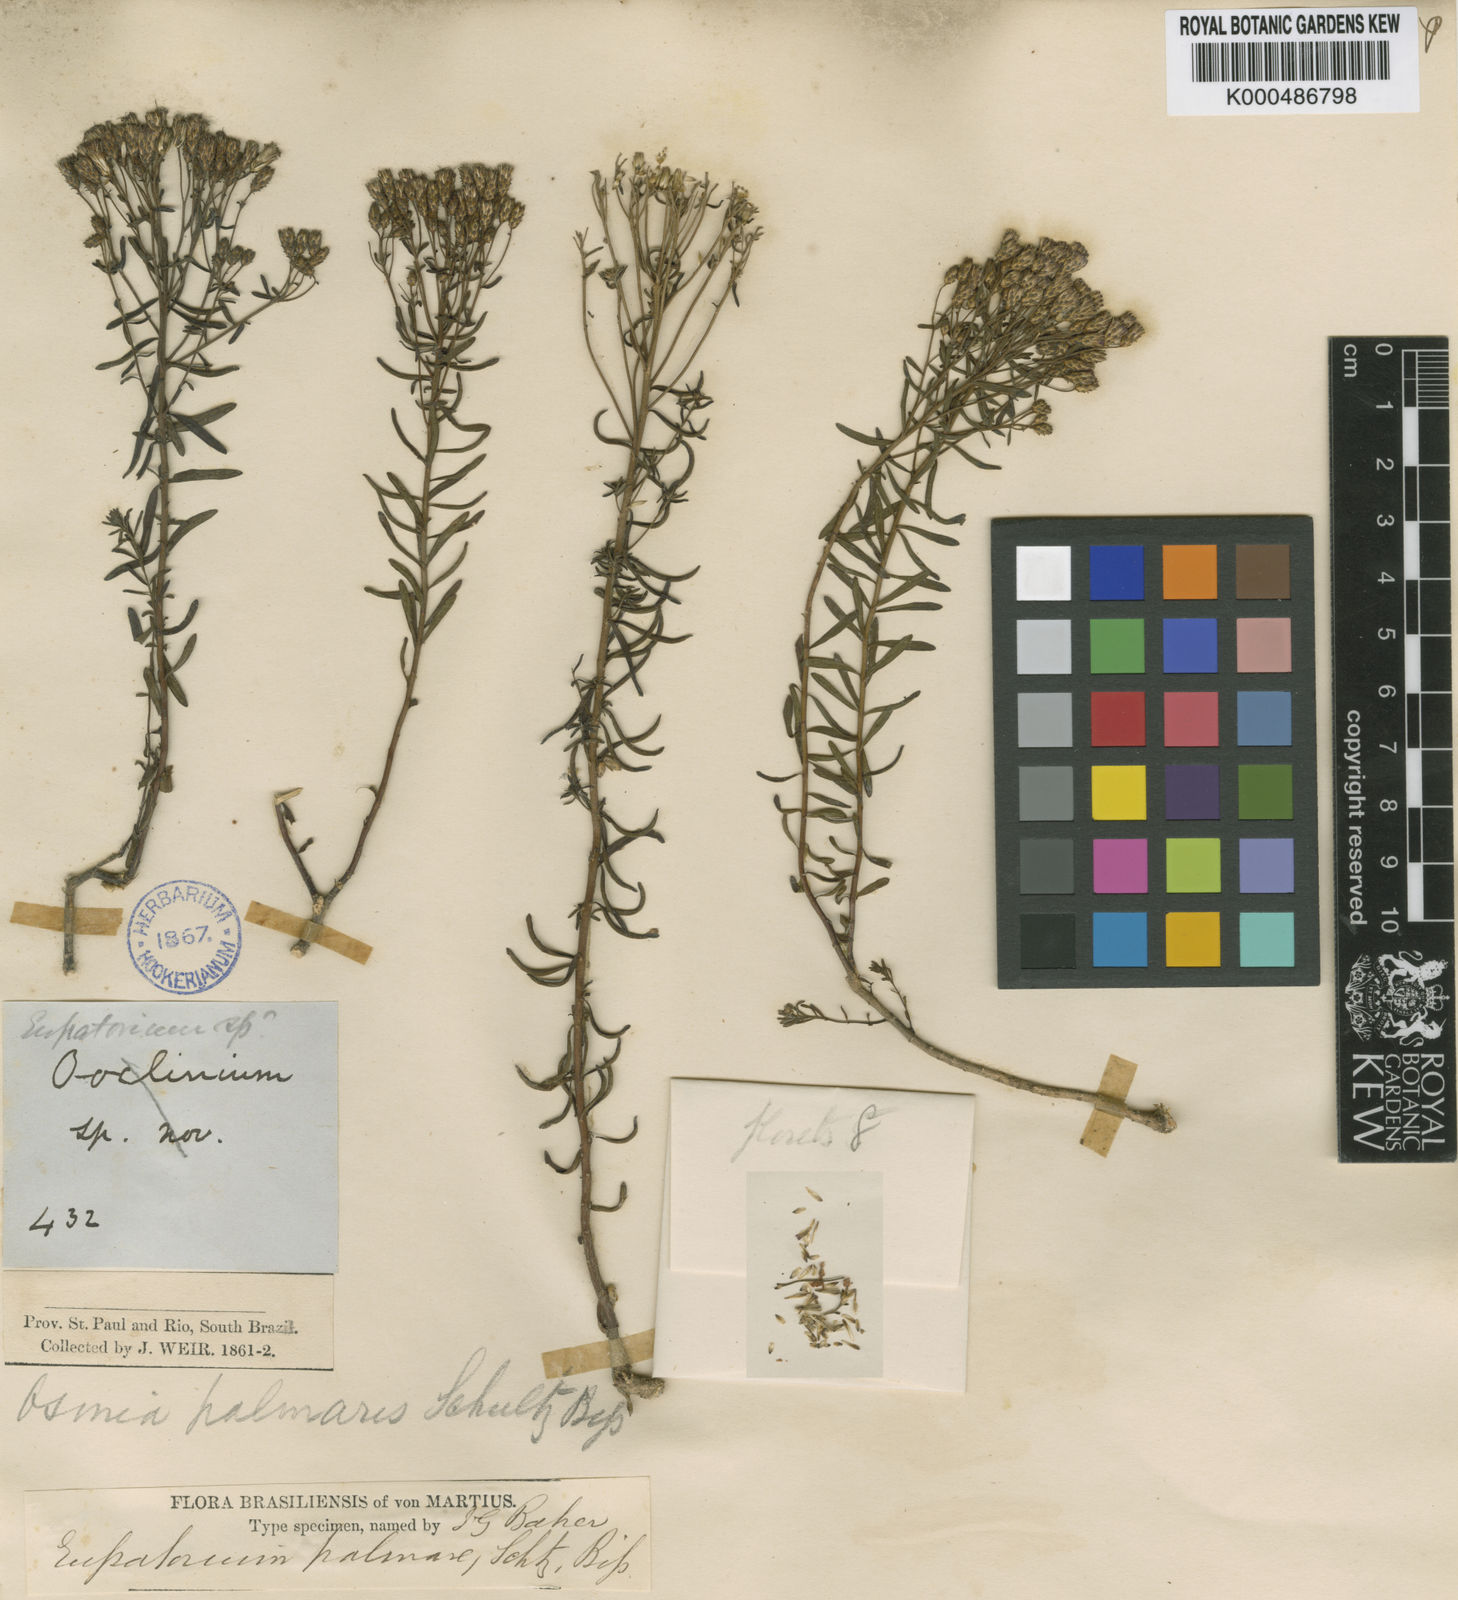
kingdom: Plantae
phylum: Tracheophyta
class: Magnoliopsida
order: Asterales
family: Asteraceae
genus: Chromolaena
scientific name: Chromolaena palmaris
